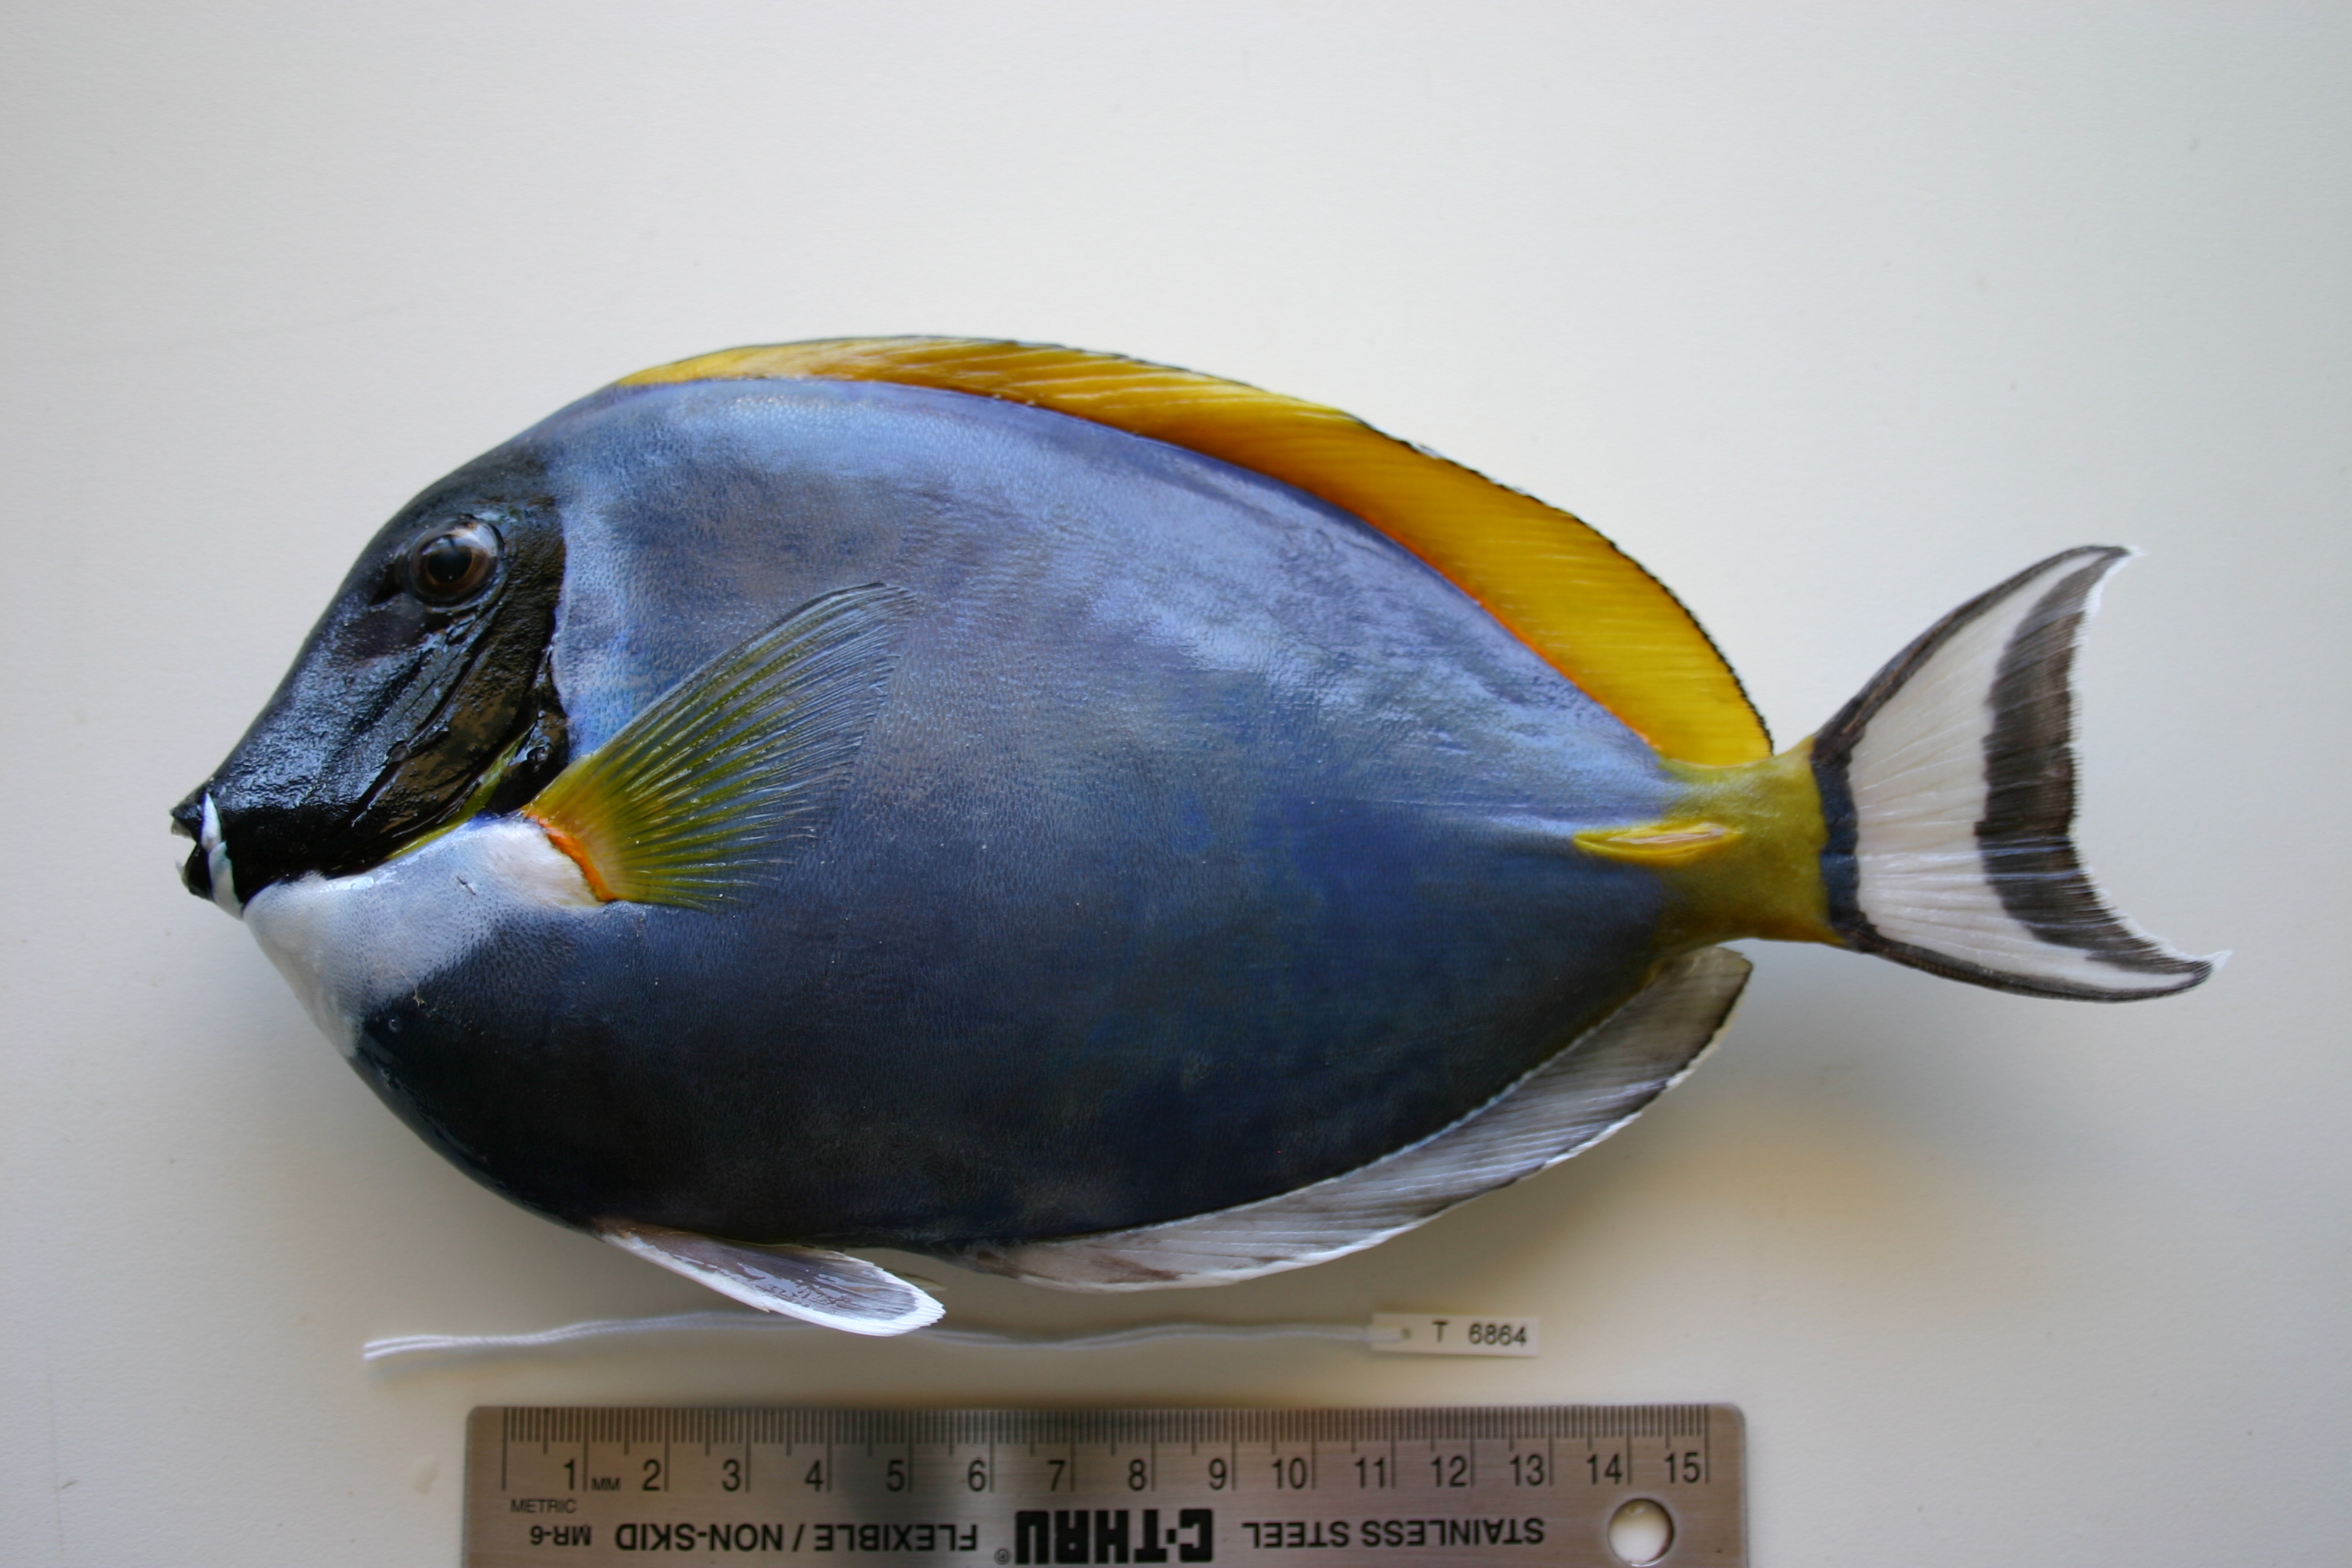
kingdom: Animalia
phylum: Chordata
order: Perciformes
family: Acanthuridae
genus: Acanthurus
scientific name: Acanthurus leucosternon
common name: Blue surgeonfish
